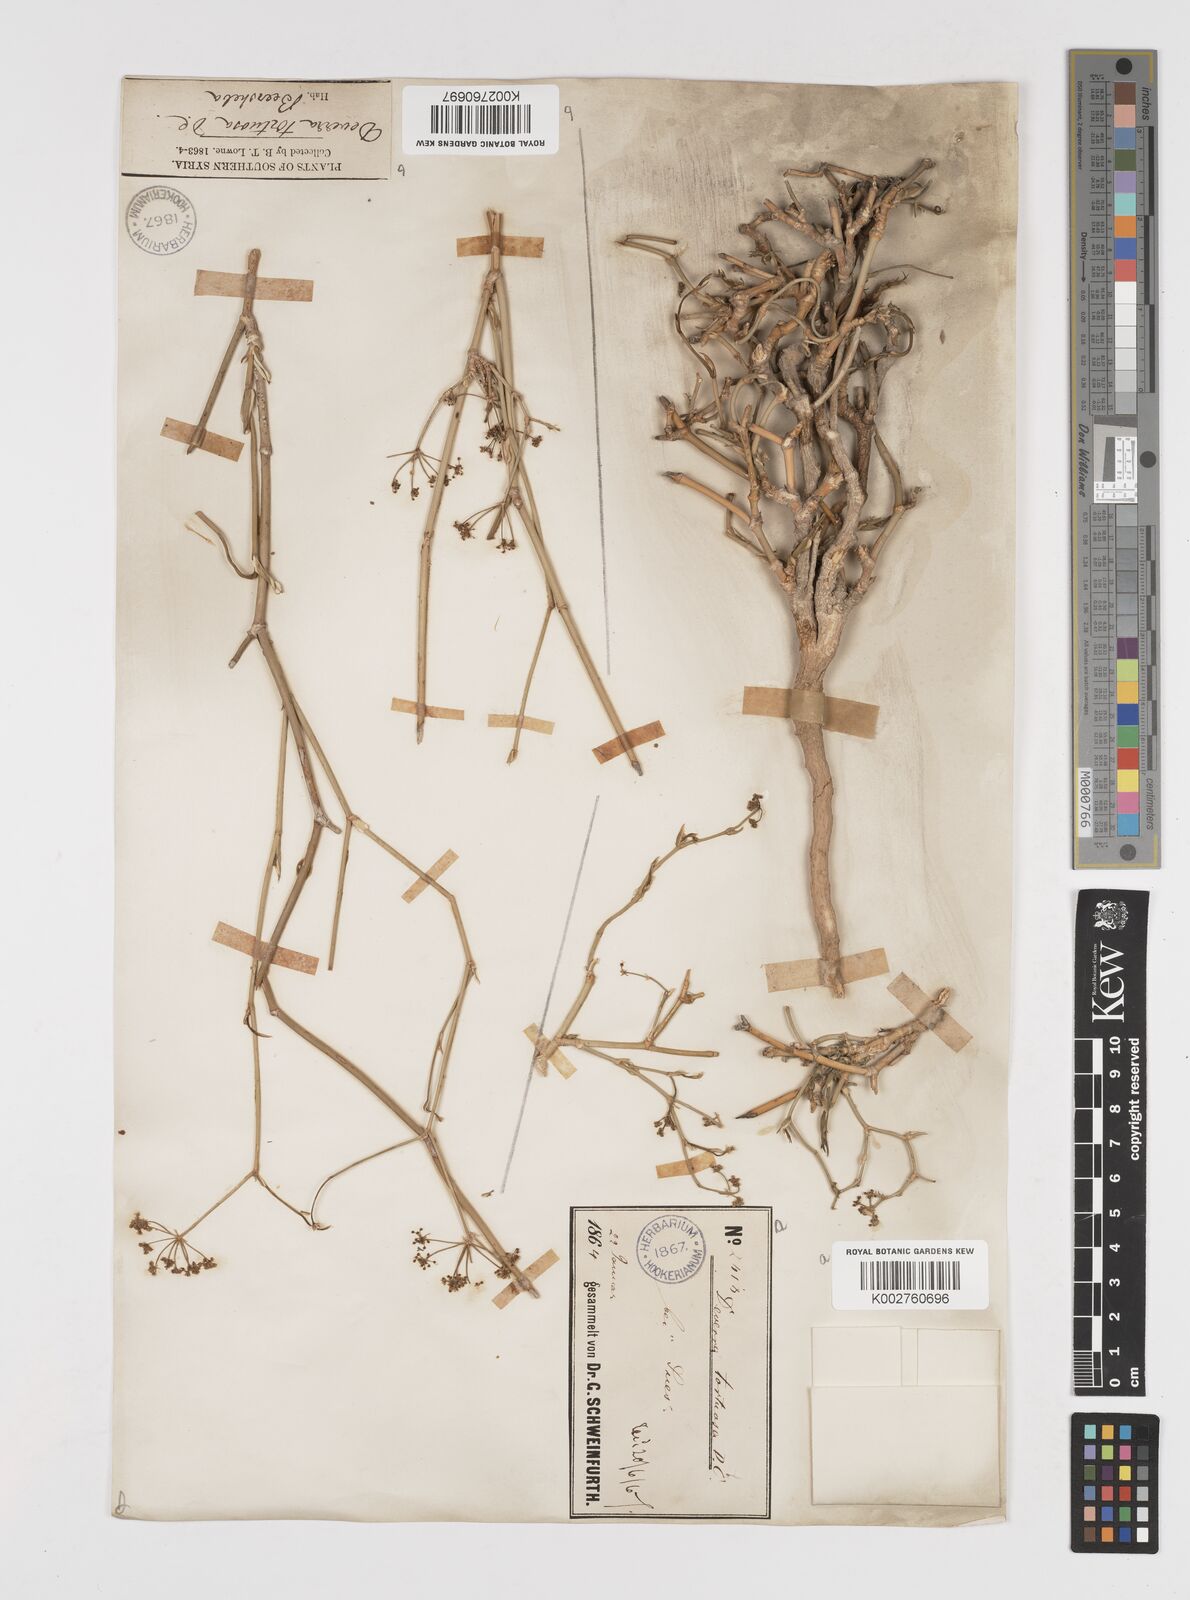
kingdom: Plantae
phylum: Tracheophyta
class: Magnoliopsida
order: Apiales
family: Apiaceae
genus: Deverra
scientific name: Deverra tortuosa
